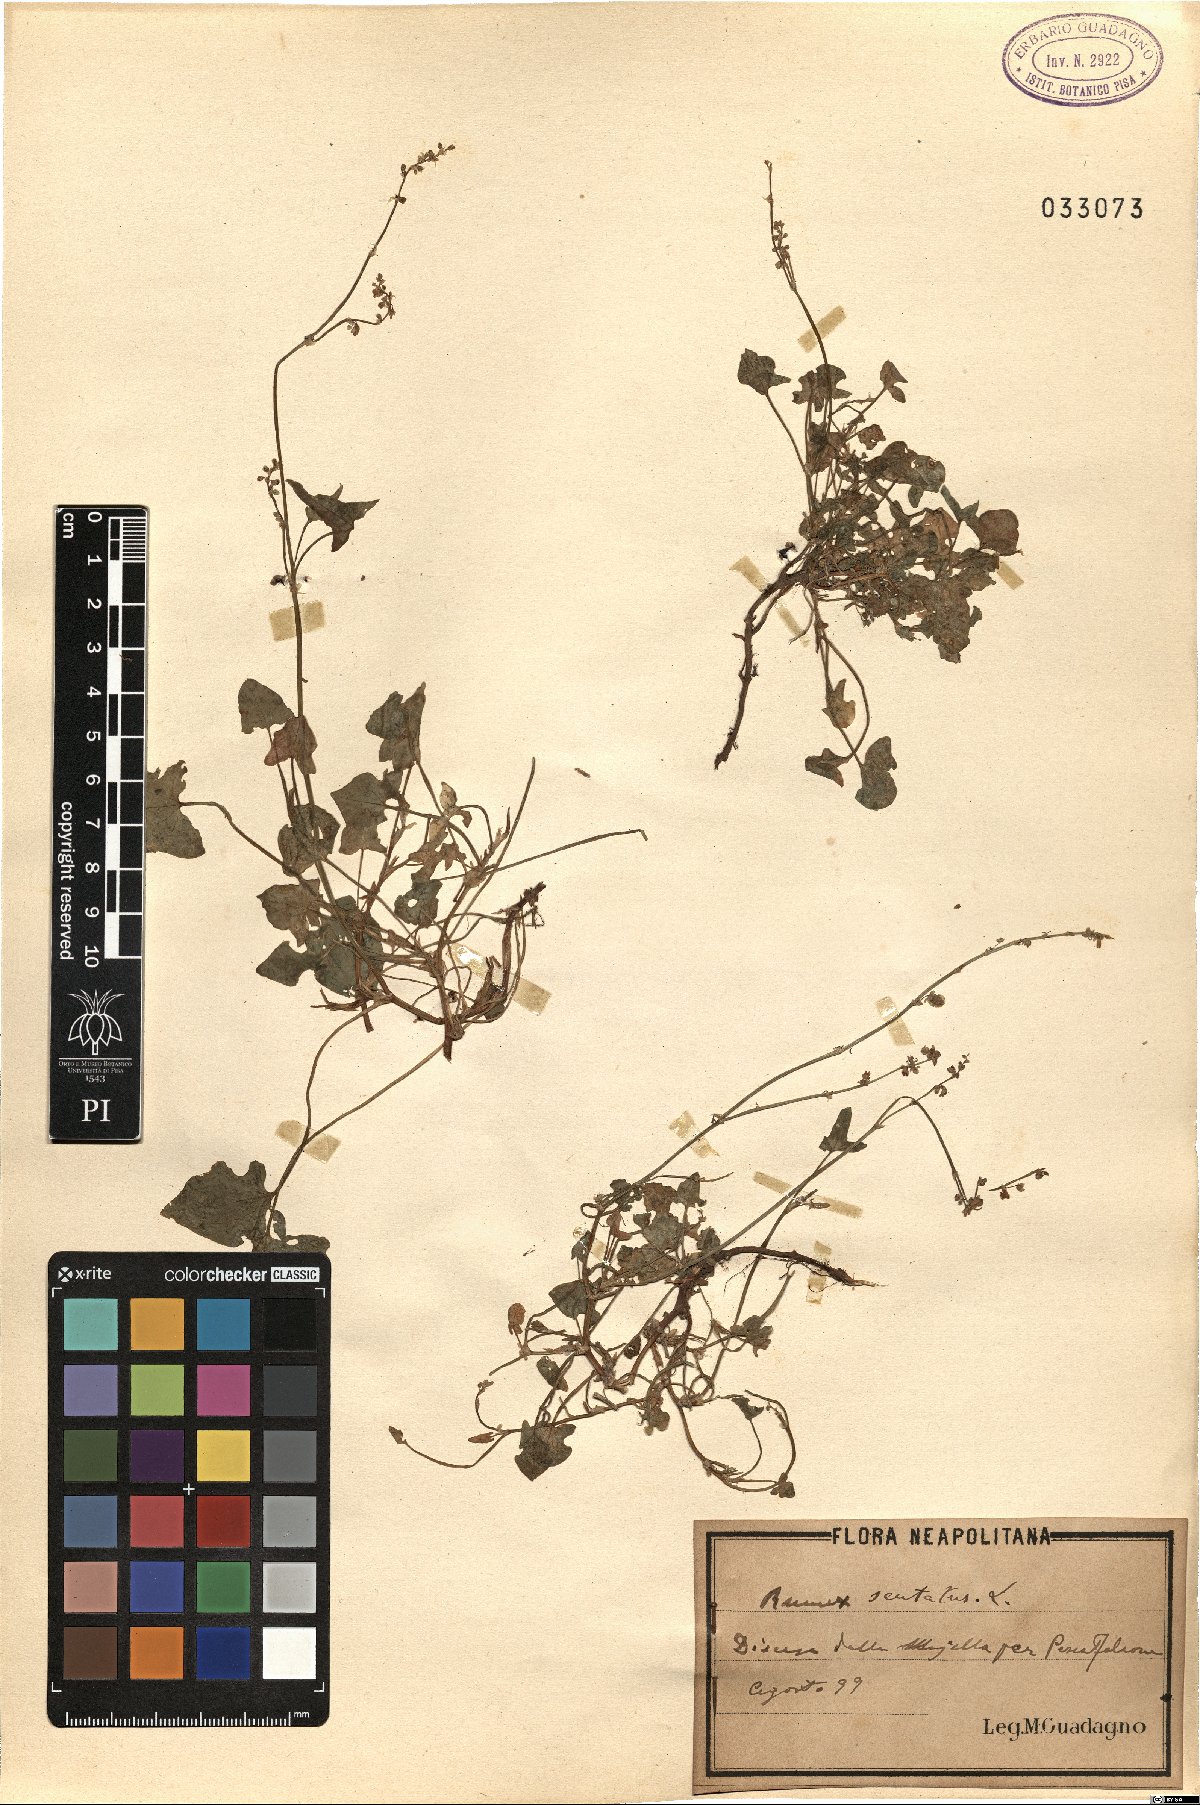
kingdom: Plantae
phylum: Tracheophyta
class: Magnoliopsida
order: Caryophyllales
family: Polygonaceae
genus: Rumex
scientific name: Rumex scutatus
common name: French sorrel
